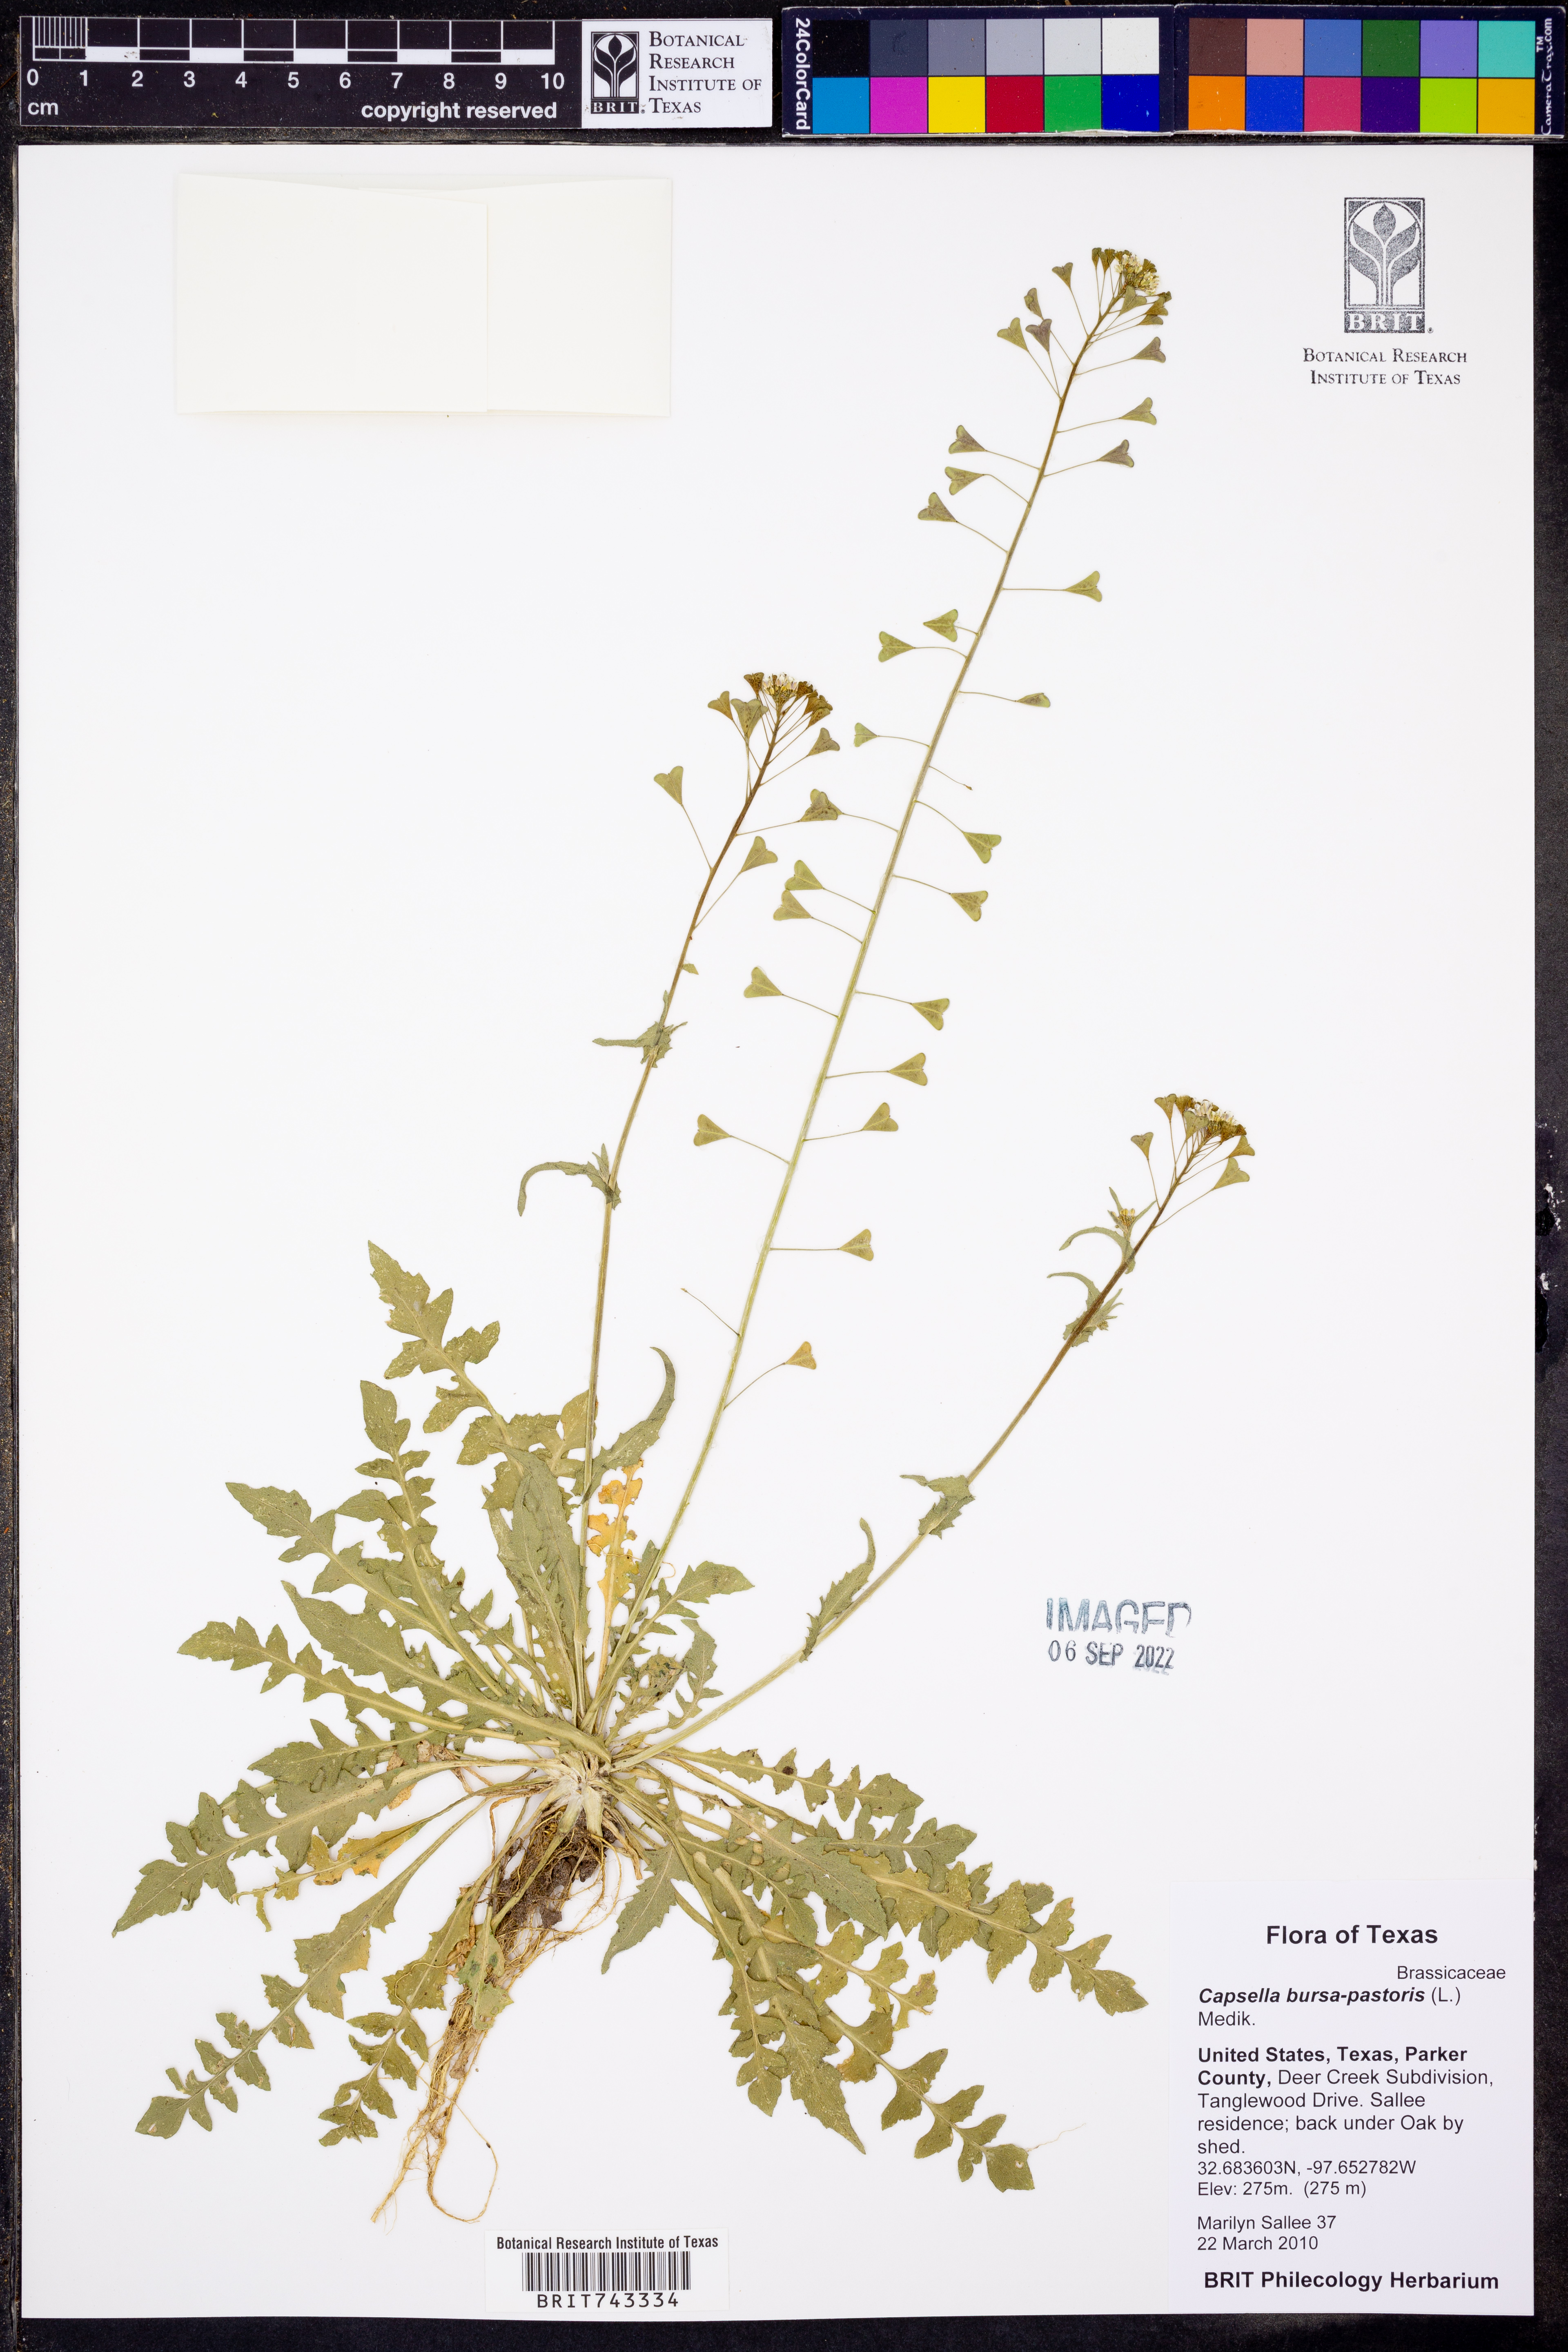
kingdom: Plantae
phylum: Tracheophyta
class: Magnoliopsida
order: Brassicales
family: Brassicaceae
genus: Capsella
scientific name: Capsella bursa-pastoris
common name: Shepherd's purse
